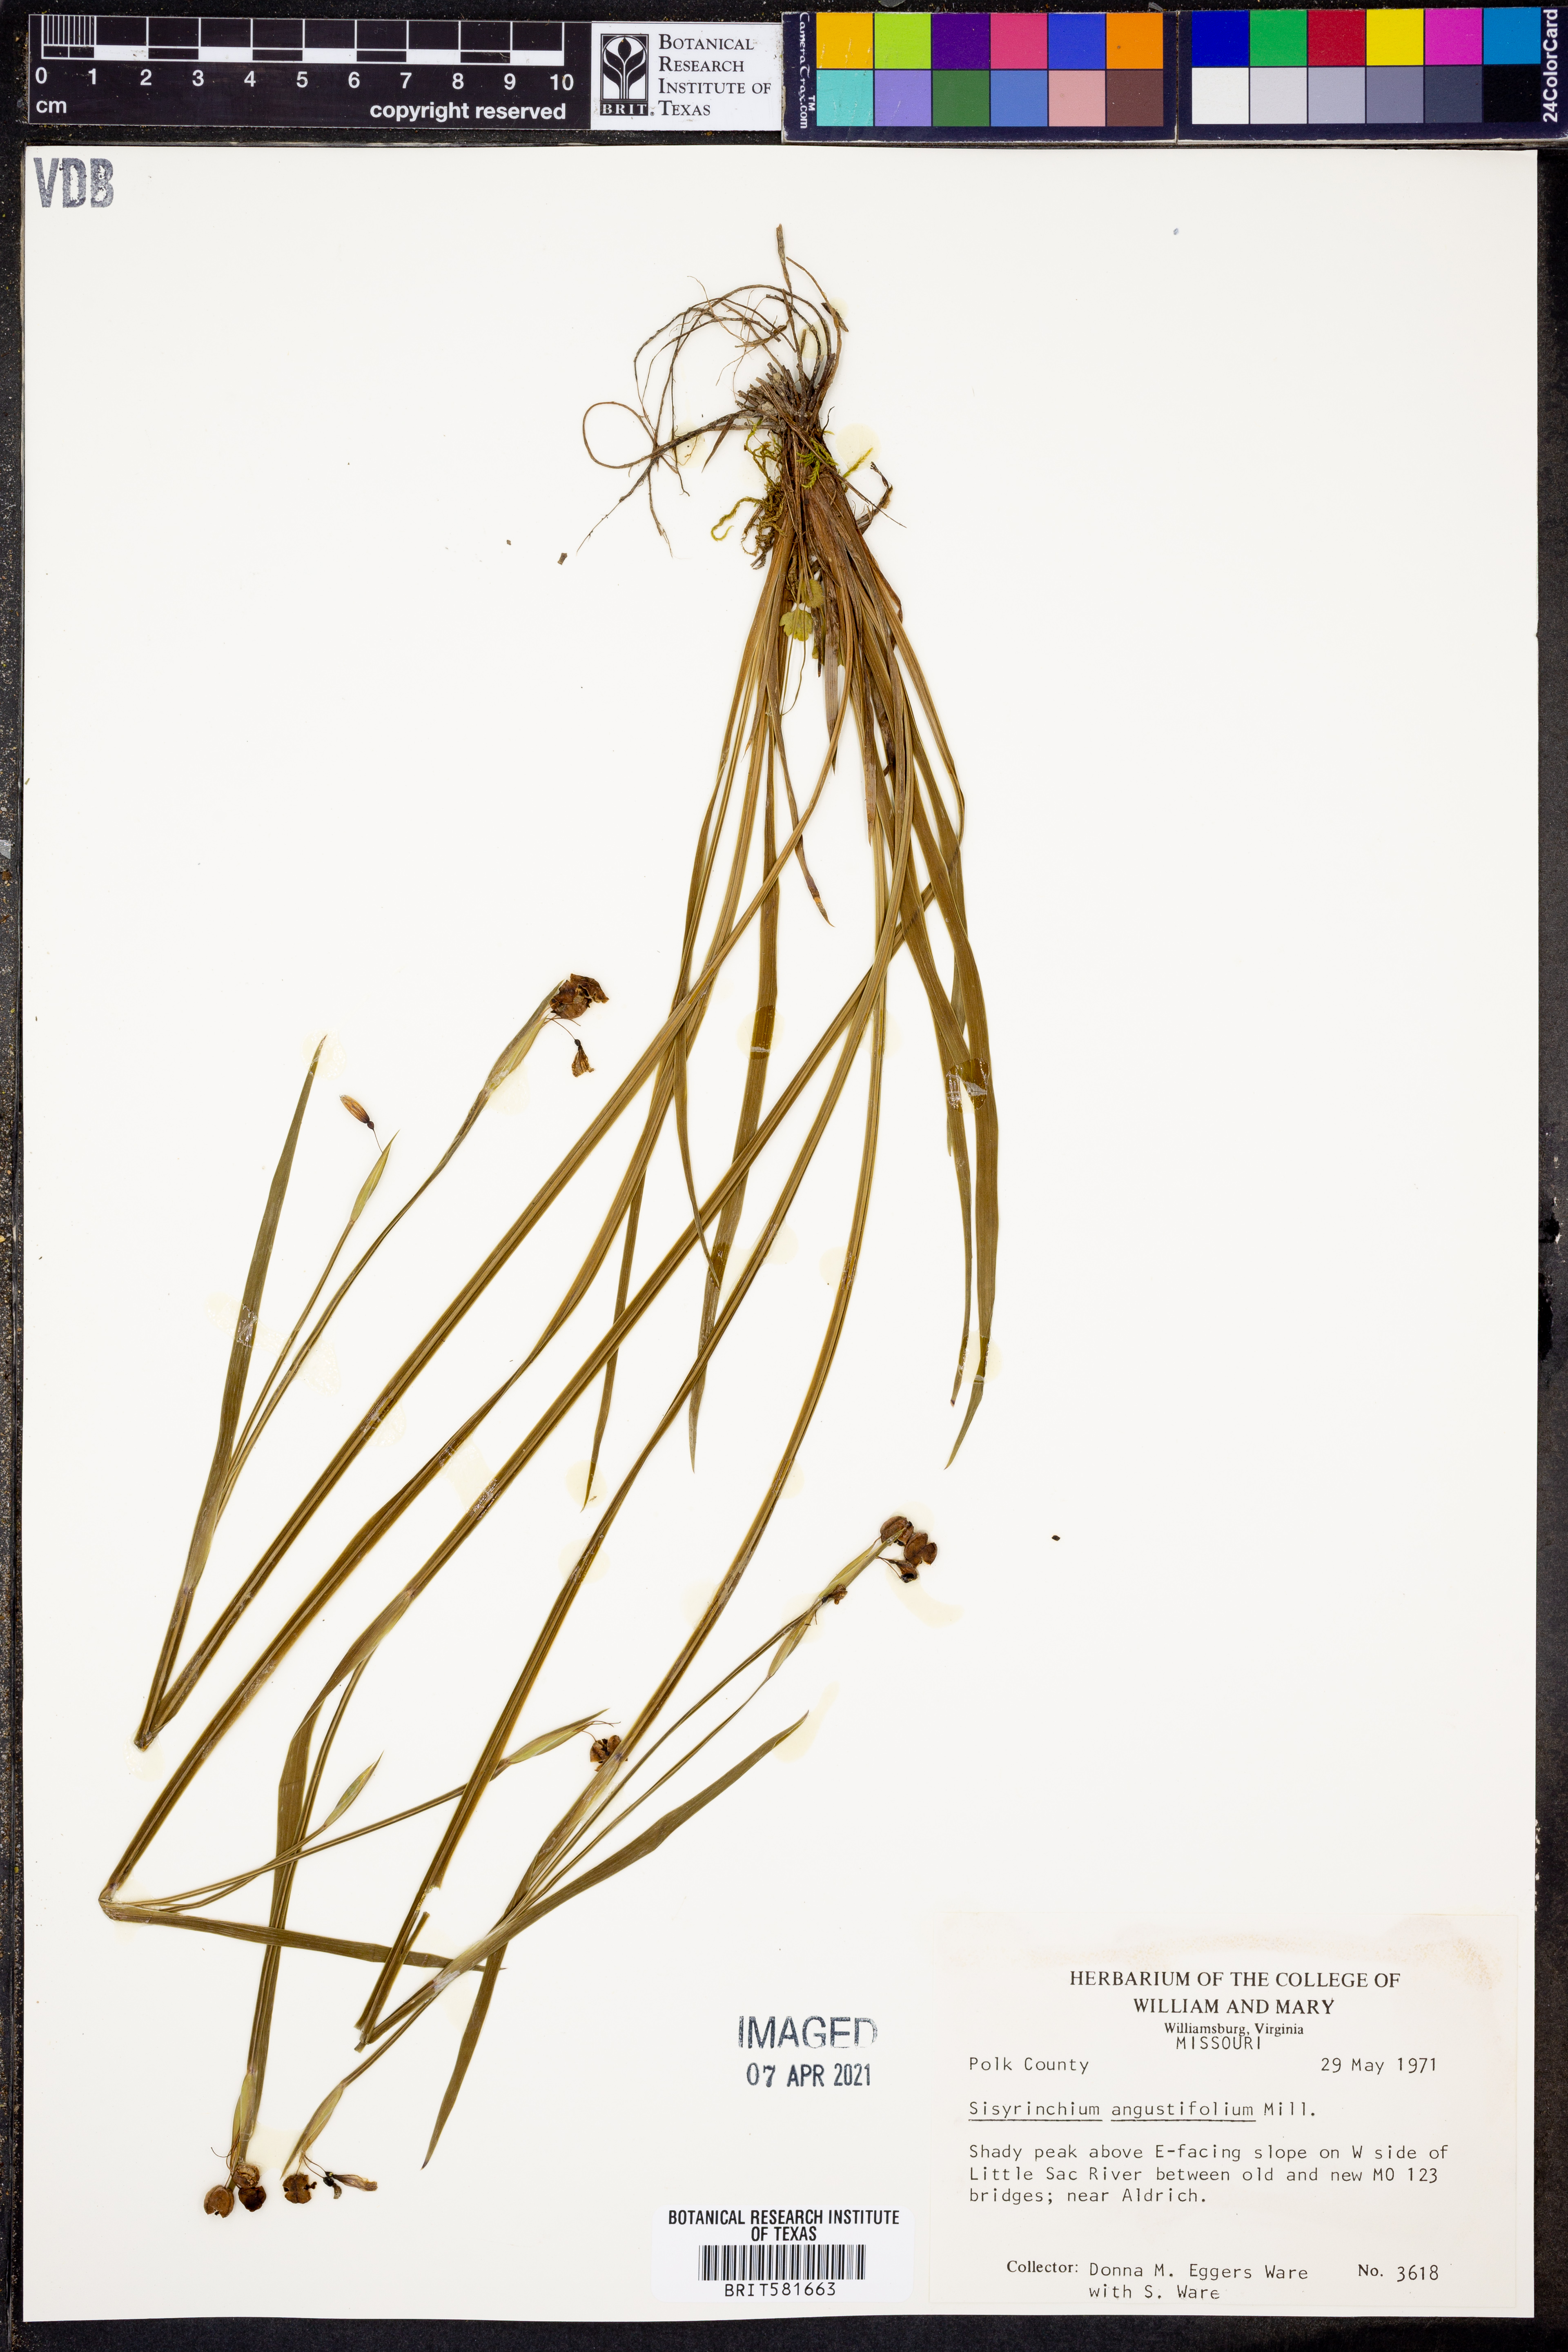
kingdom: Plantae
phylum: Tracheophyta
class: Liliopsida
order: Asparagales
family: Iridaceae
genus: Sisyrinchium
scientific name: Sisyrinchium angustifolium
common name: Narrow-leaf blue-eyed-grass
